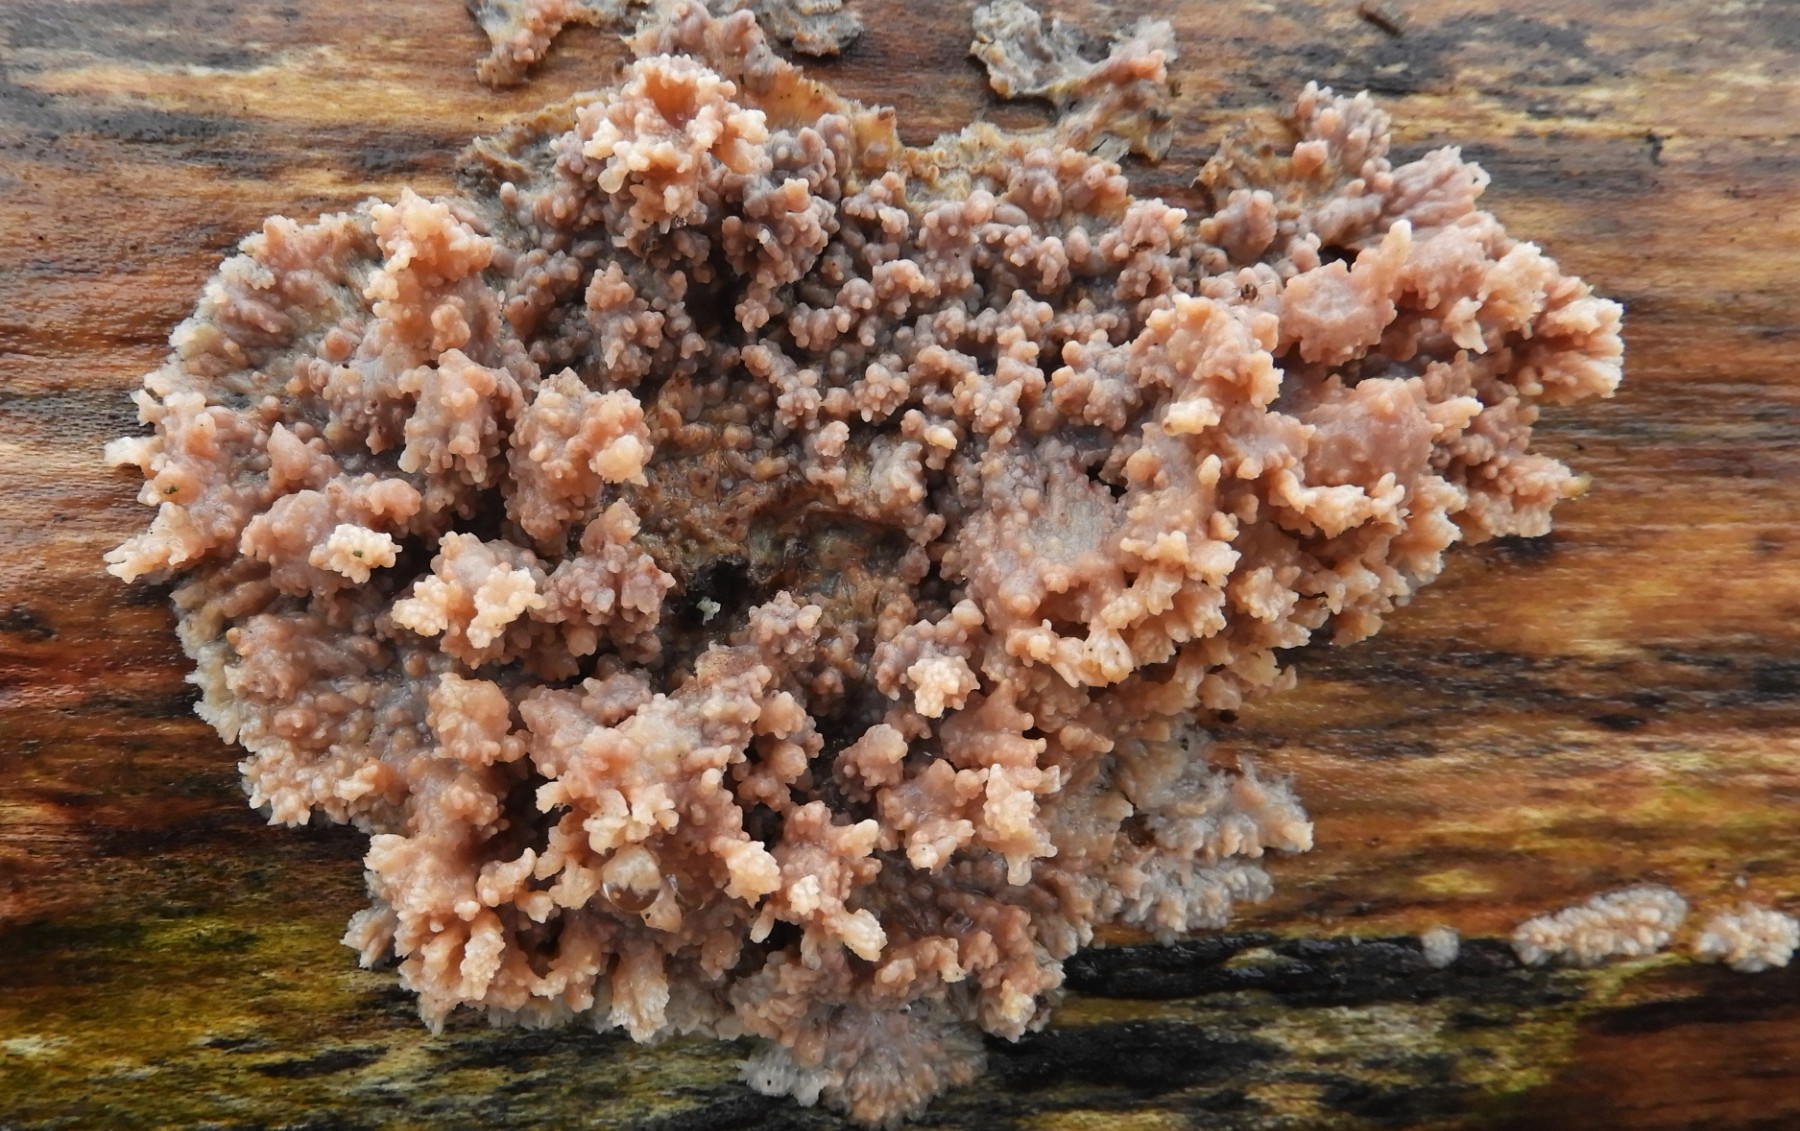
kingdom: Fungi
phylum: Basidiomycota
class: Agaricomycetes
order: Polyporales
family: Meruliaceae
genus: Phlebia
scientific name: Phlebia radiata
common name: stråle-åresvamp
